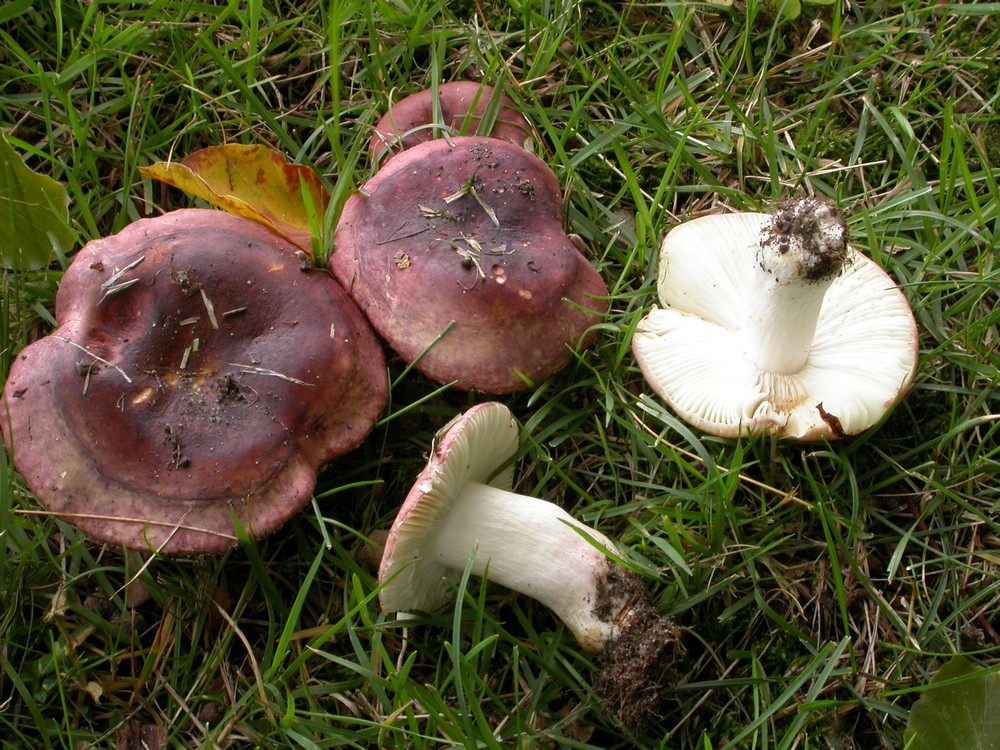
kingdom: Fungi
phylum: Basidiomycota
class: Agaricomycetes
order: Russulales
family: Russulaceae
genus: Russula
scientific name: Russula graveolens
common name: bugtet skørhat
